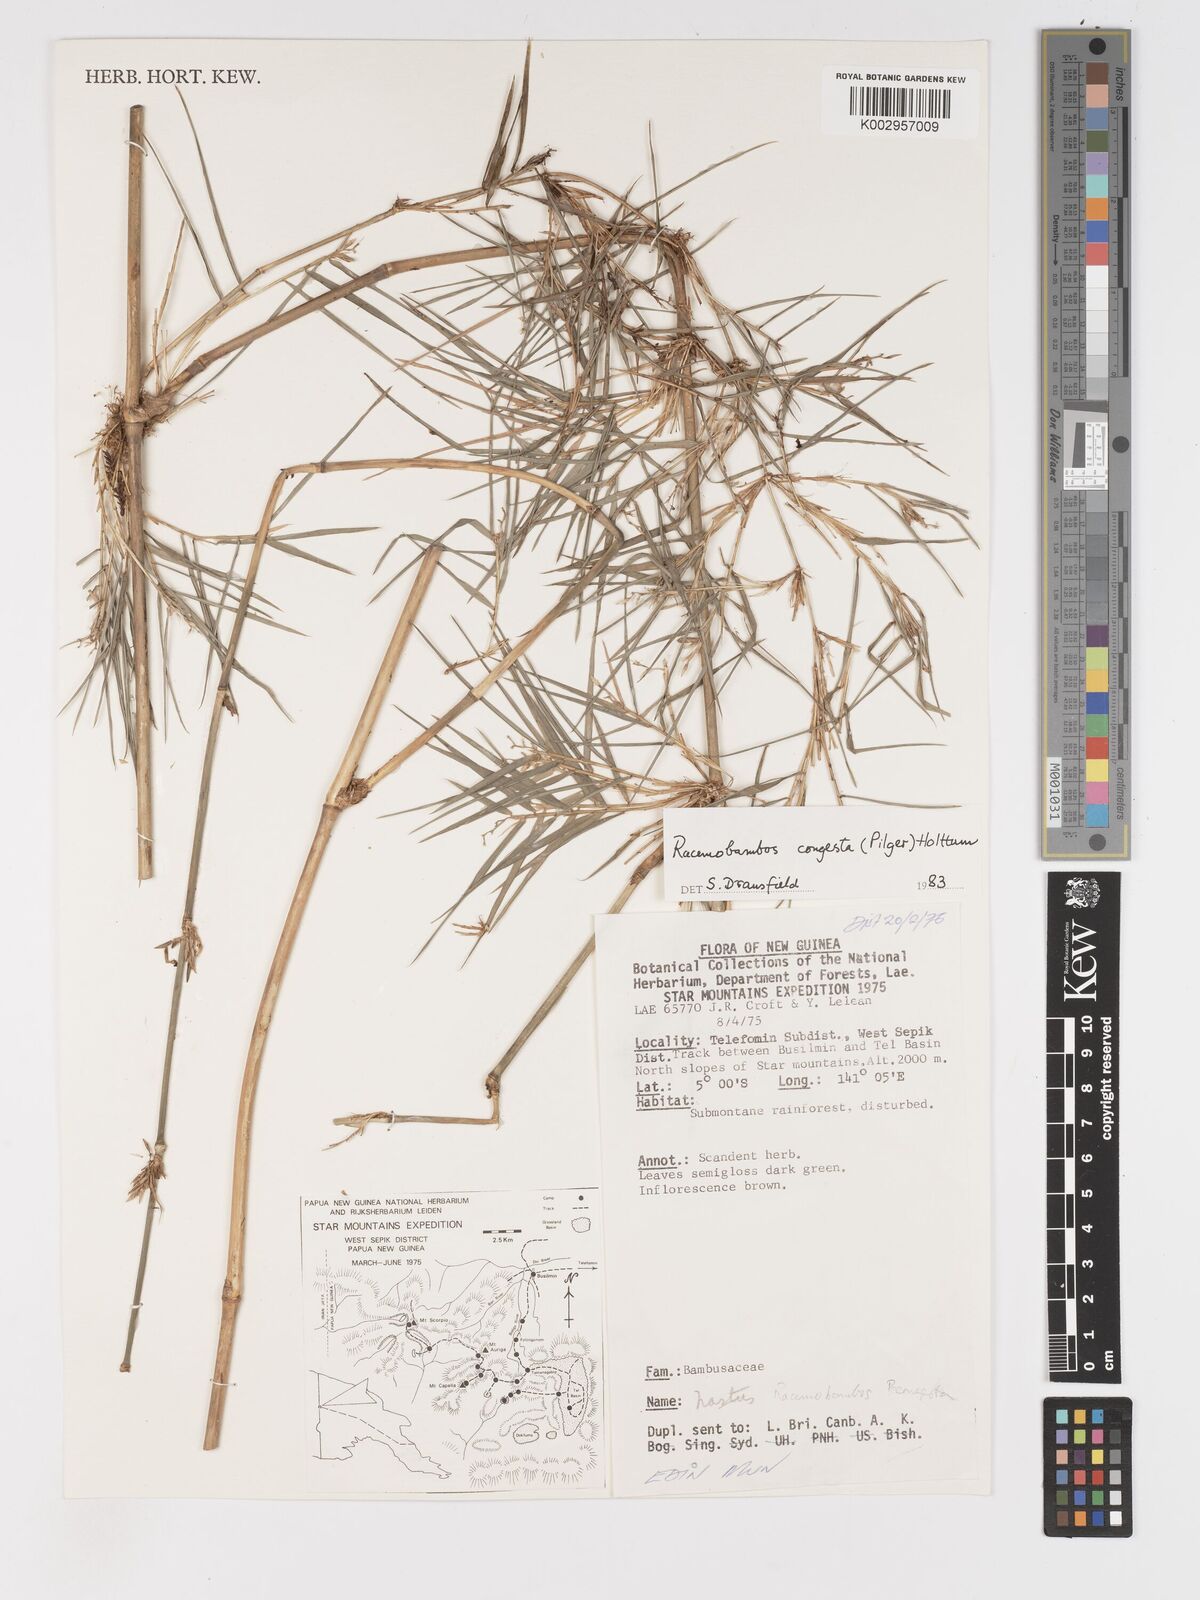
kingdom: Plantae
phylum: Tracheophyta
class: Liliopsida
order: Poales
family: Poaceae
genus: Racemobambos
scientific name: Racemobambos congesta
